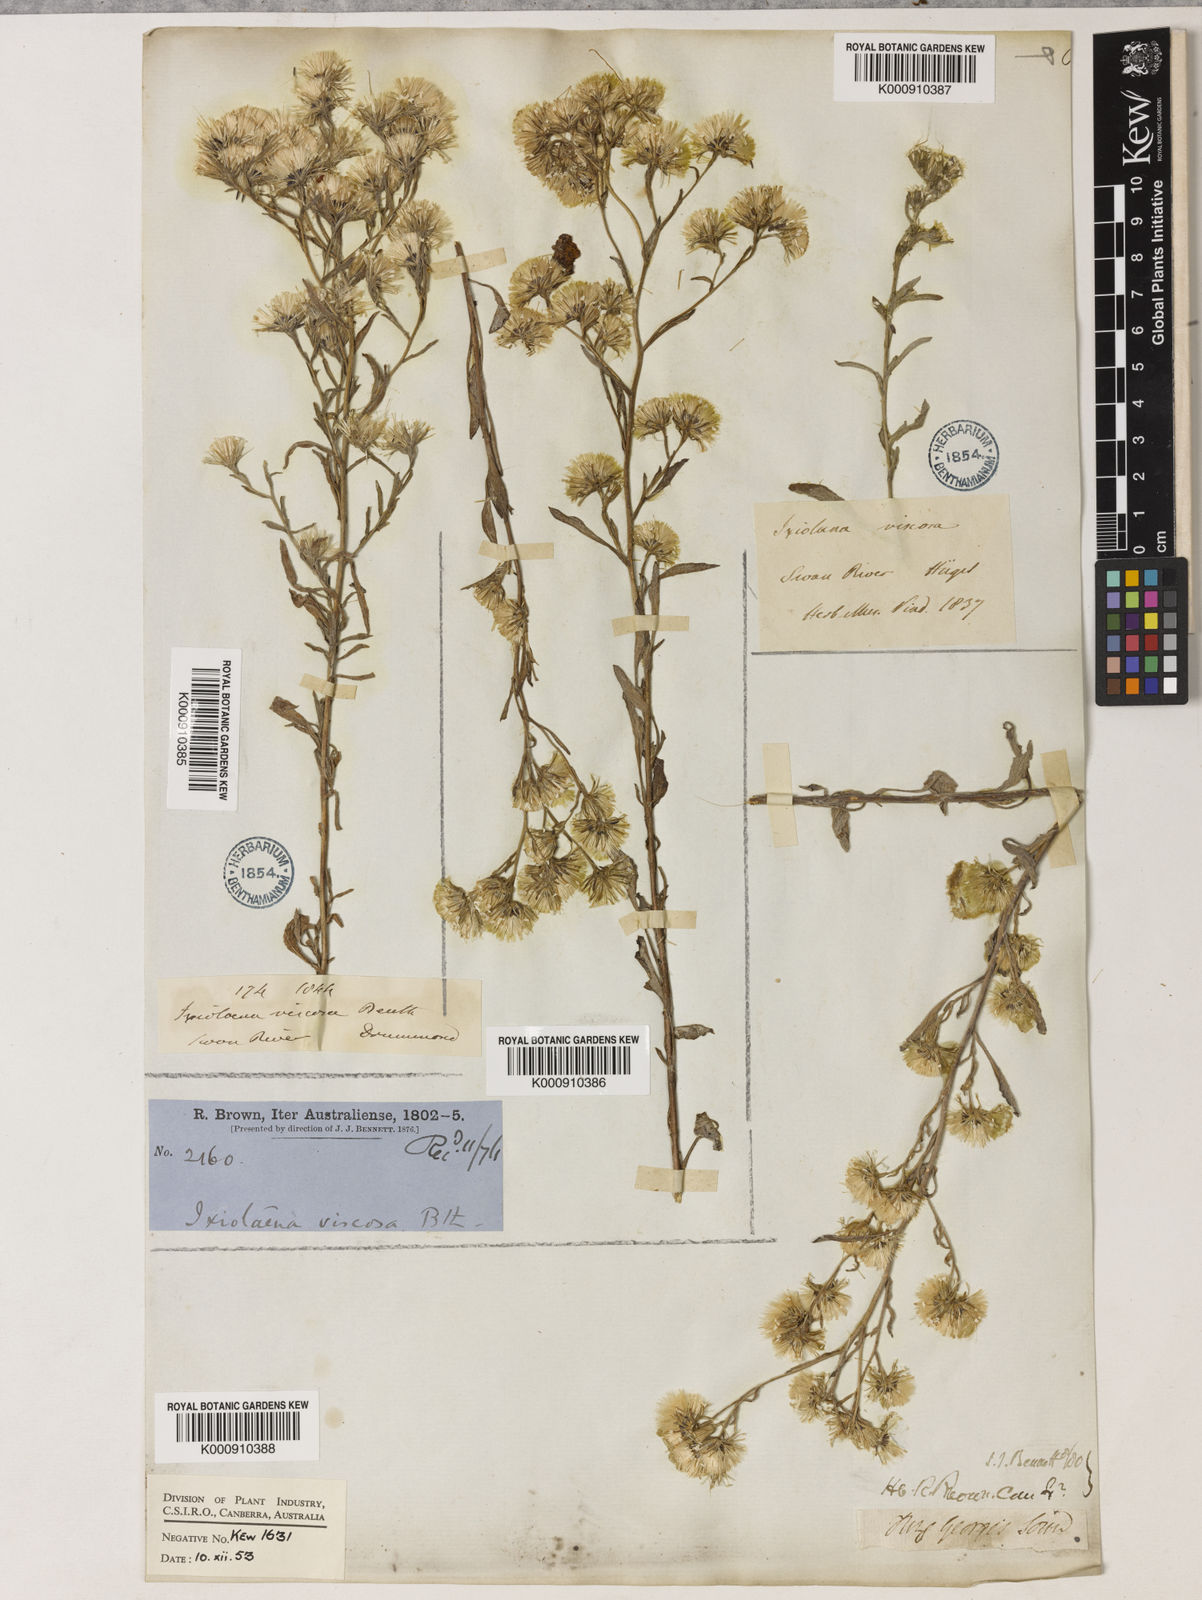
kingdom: Plantae
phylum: Tracheophyta
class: Magnoliopsida
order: Asterales
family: Asteraceae
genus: Ixiolaena
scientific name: Ixiolaena viscosa
